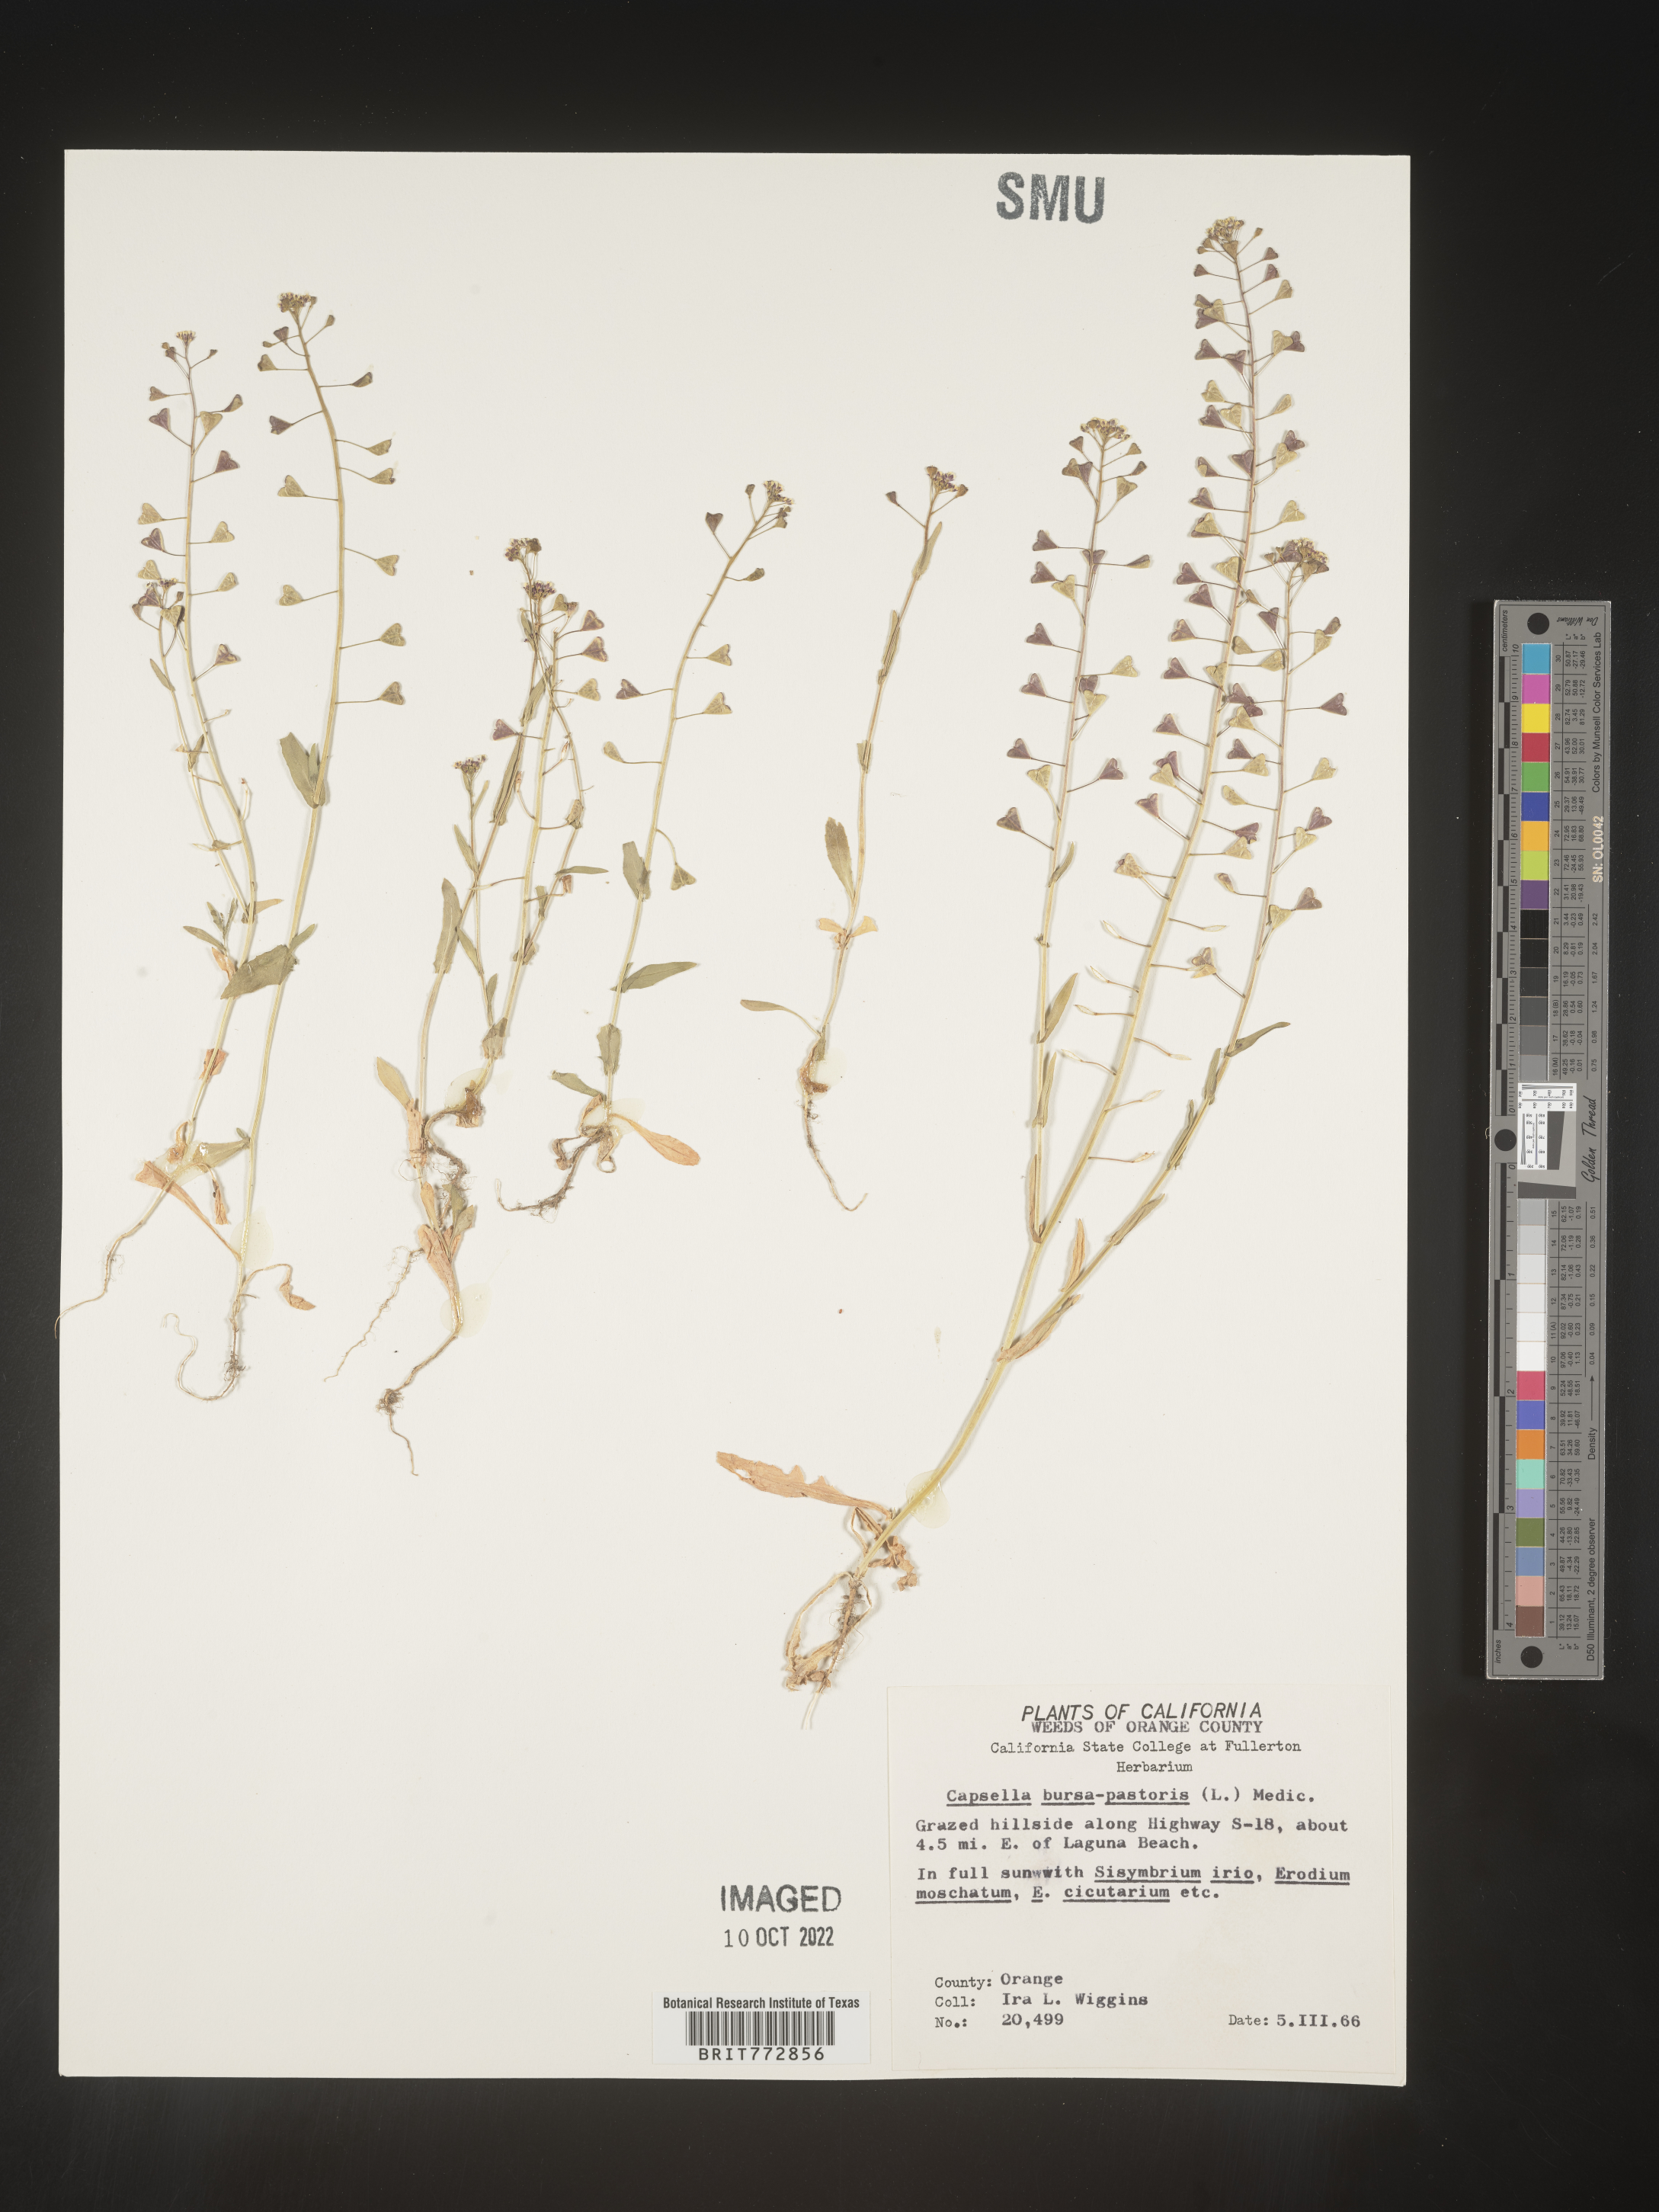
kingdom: Plantae
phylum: Tracheophyta
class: Magnoliopsida
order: Brassicales
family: Brassicaceae
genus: Capsella
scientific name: Capsella bursa-pastoris
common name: Shepherd's purse
